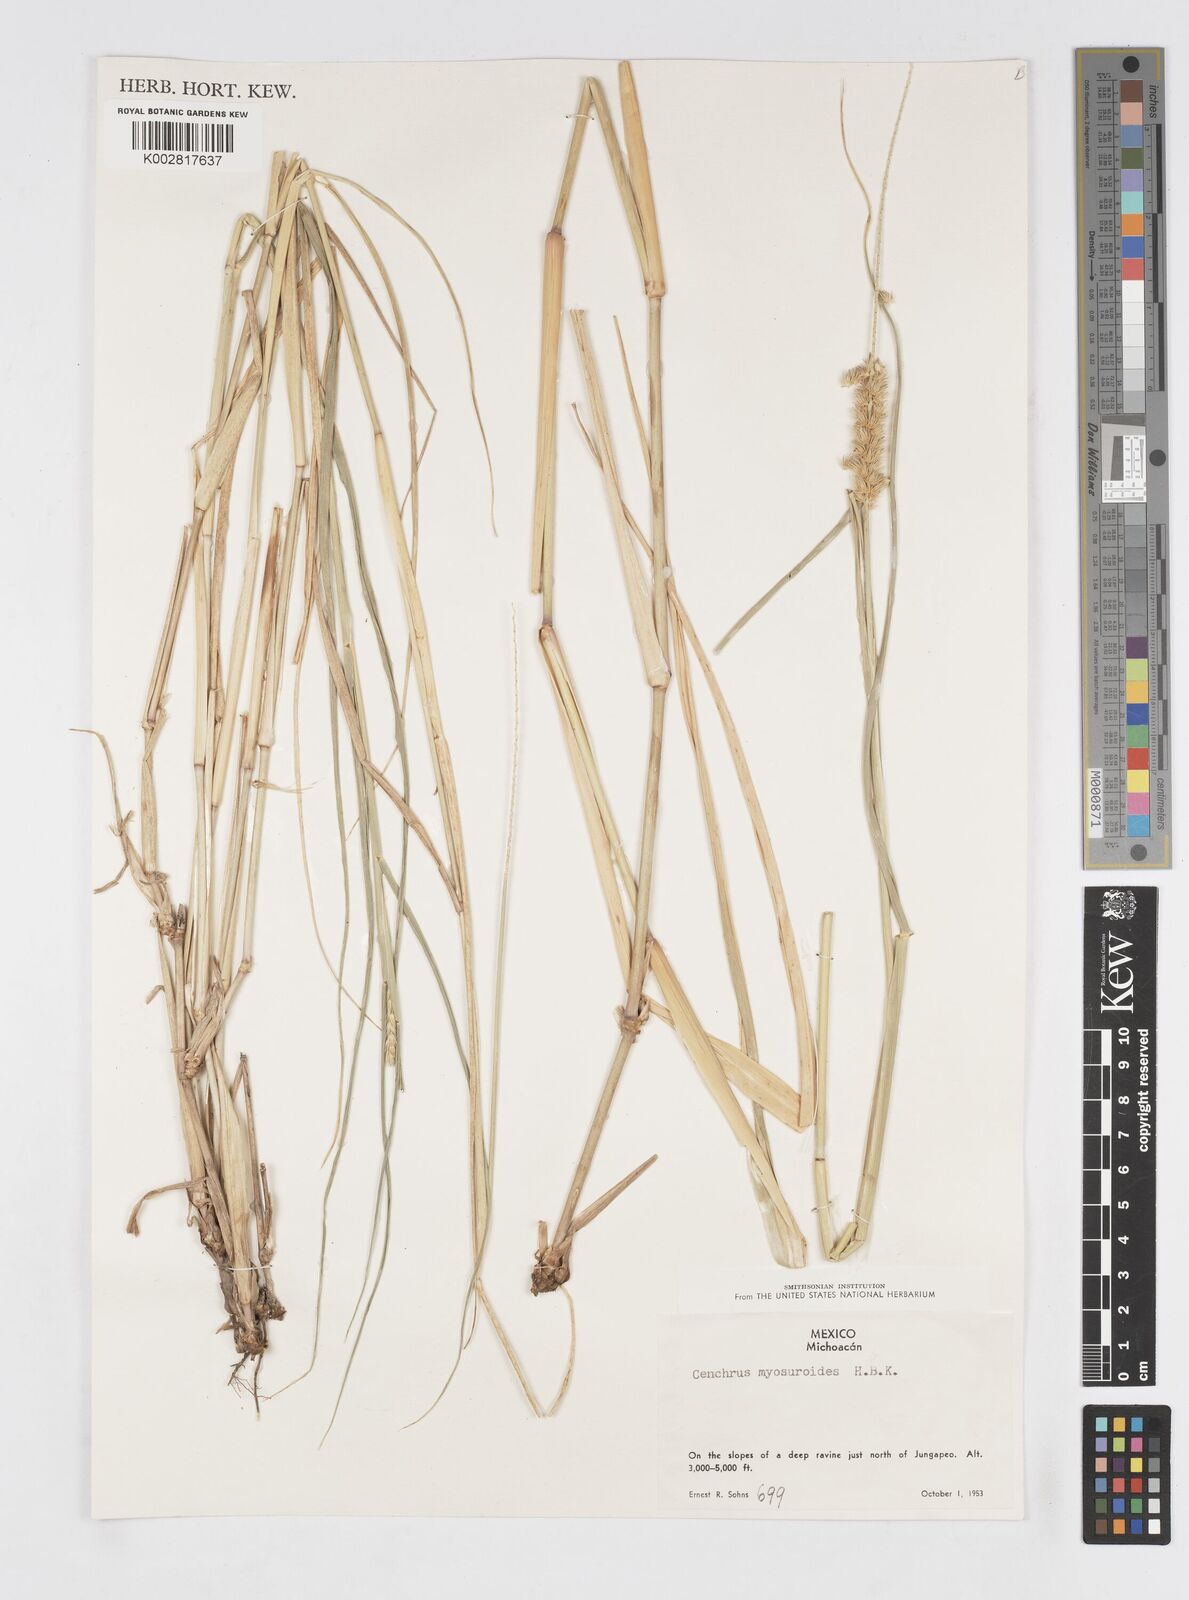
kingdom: Plantae
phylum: Tracheophyta
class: Liliopsida
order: Poales
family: Poaceae
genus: Cenchrus
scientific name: Cenchrus myosuroides
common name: Big sandbur
